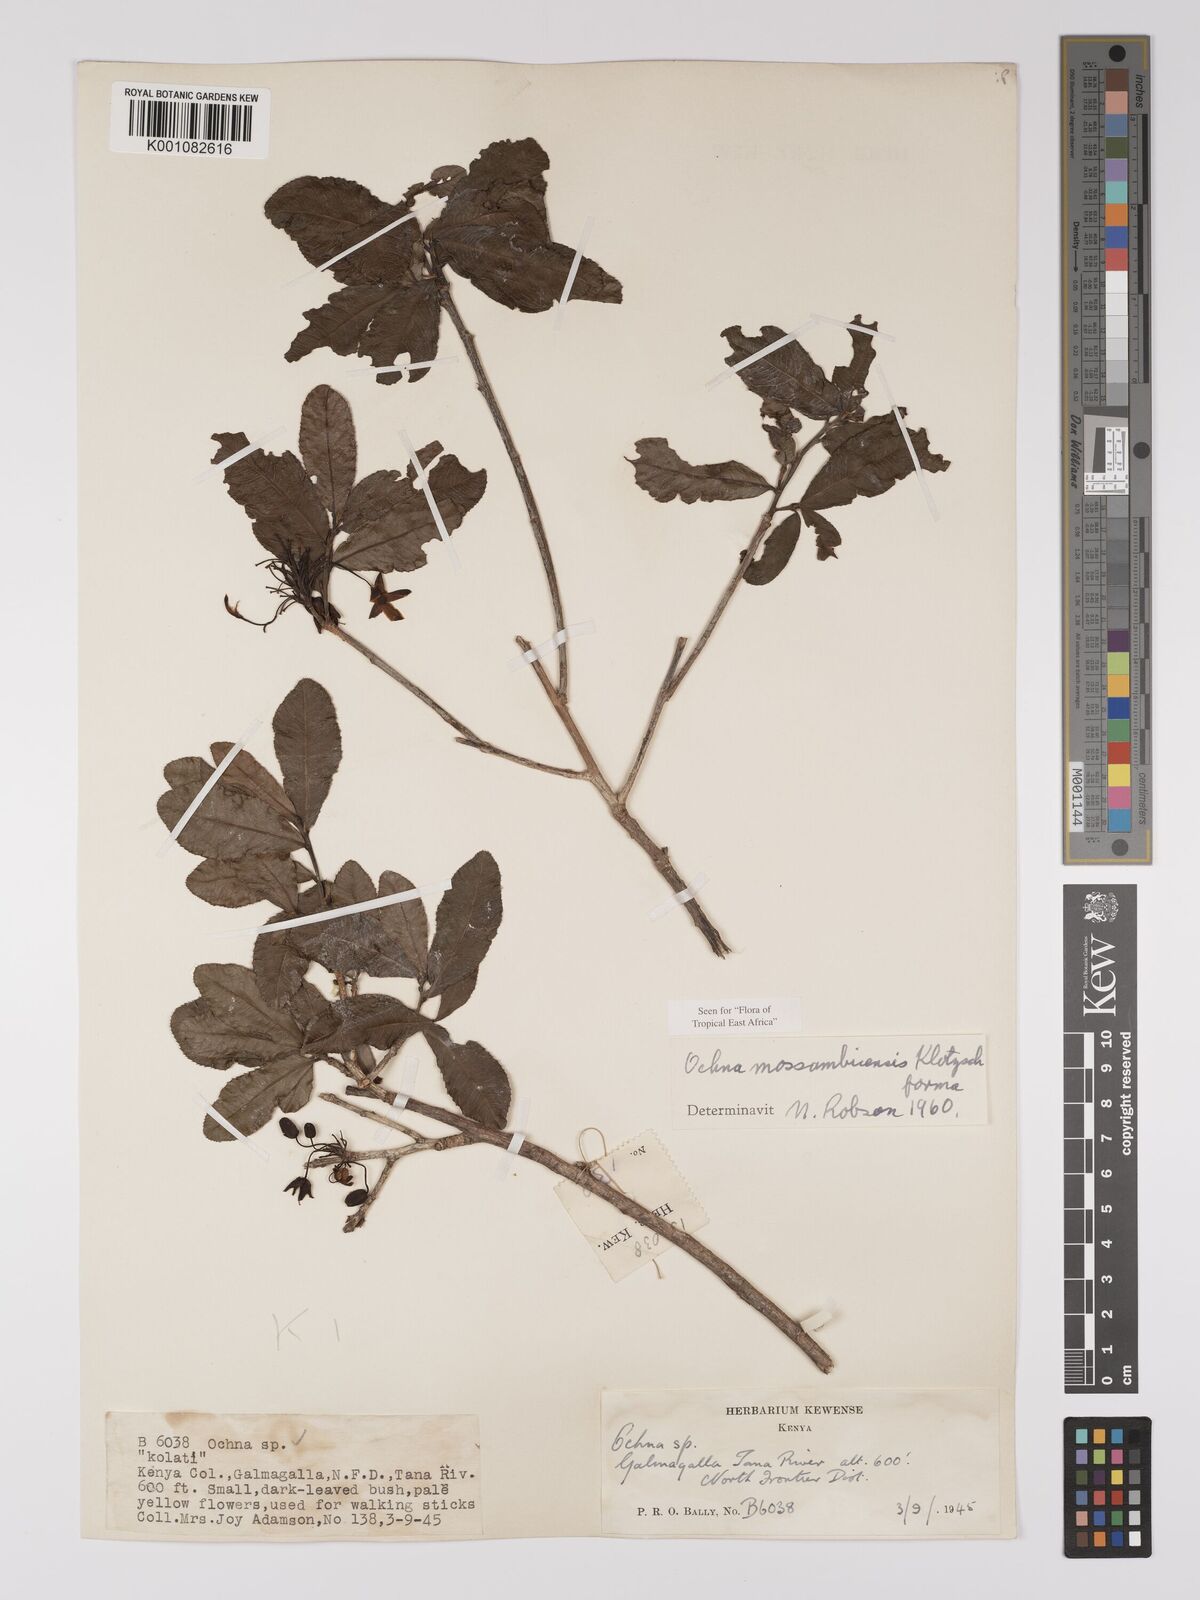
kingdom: Plantae
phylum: Tracheophyta
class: Magnoliopsida
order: Malpighiales
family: Ochnaceae
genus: Ochna
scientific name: Ochna atropurpurea
